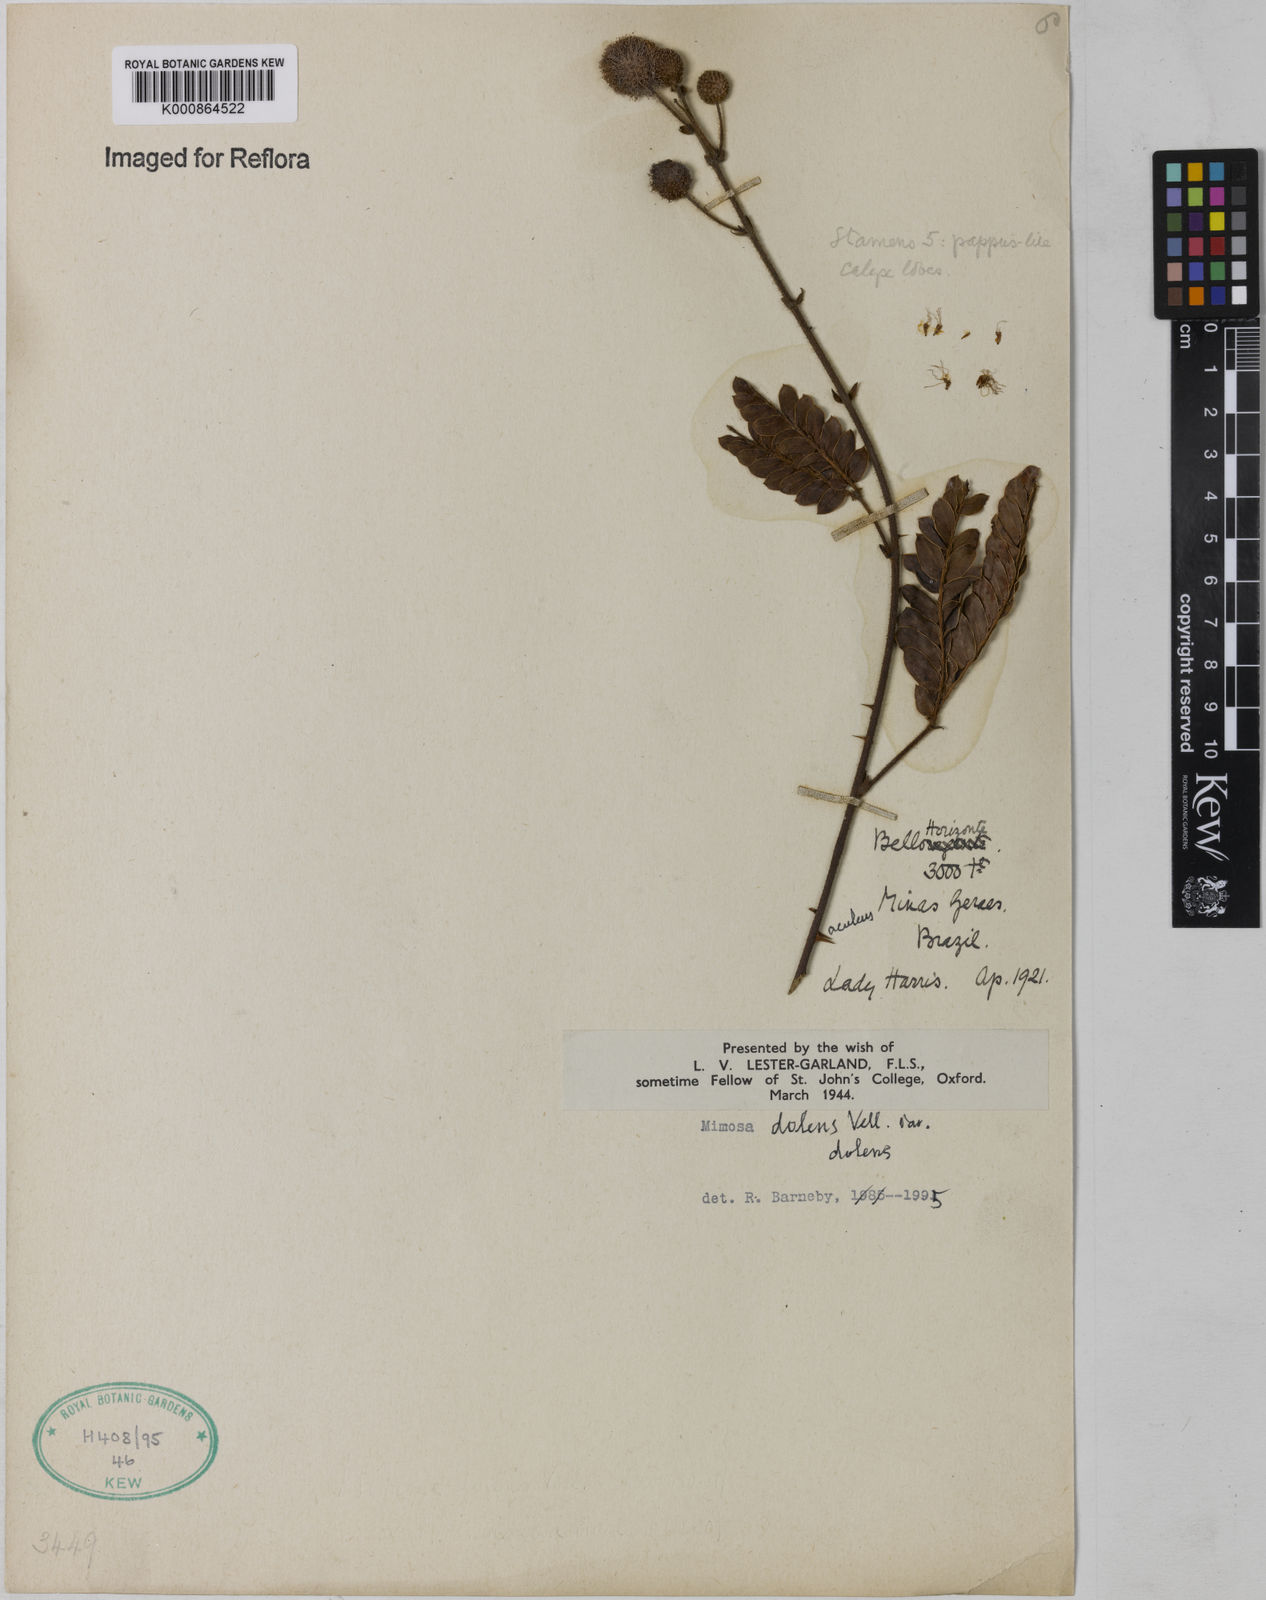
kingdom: Plantae
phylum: Tracheophyta
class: Magnoliopsida
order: Fabales
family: Fabaceae
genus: Mimosa
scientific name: Mimosa dolens
